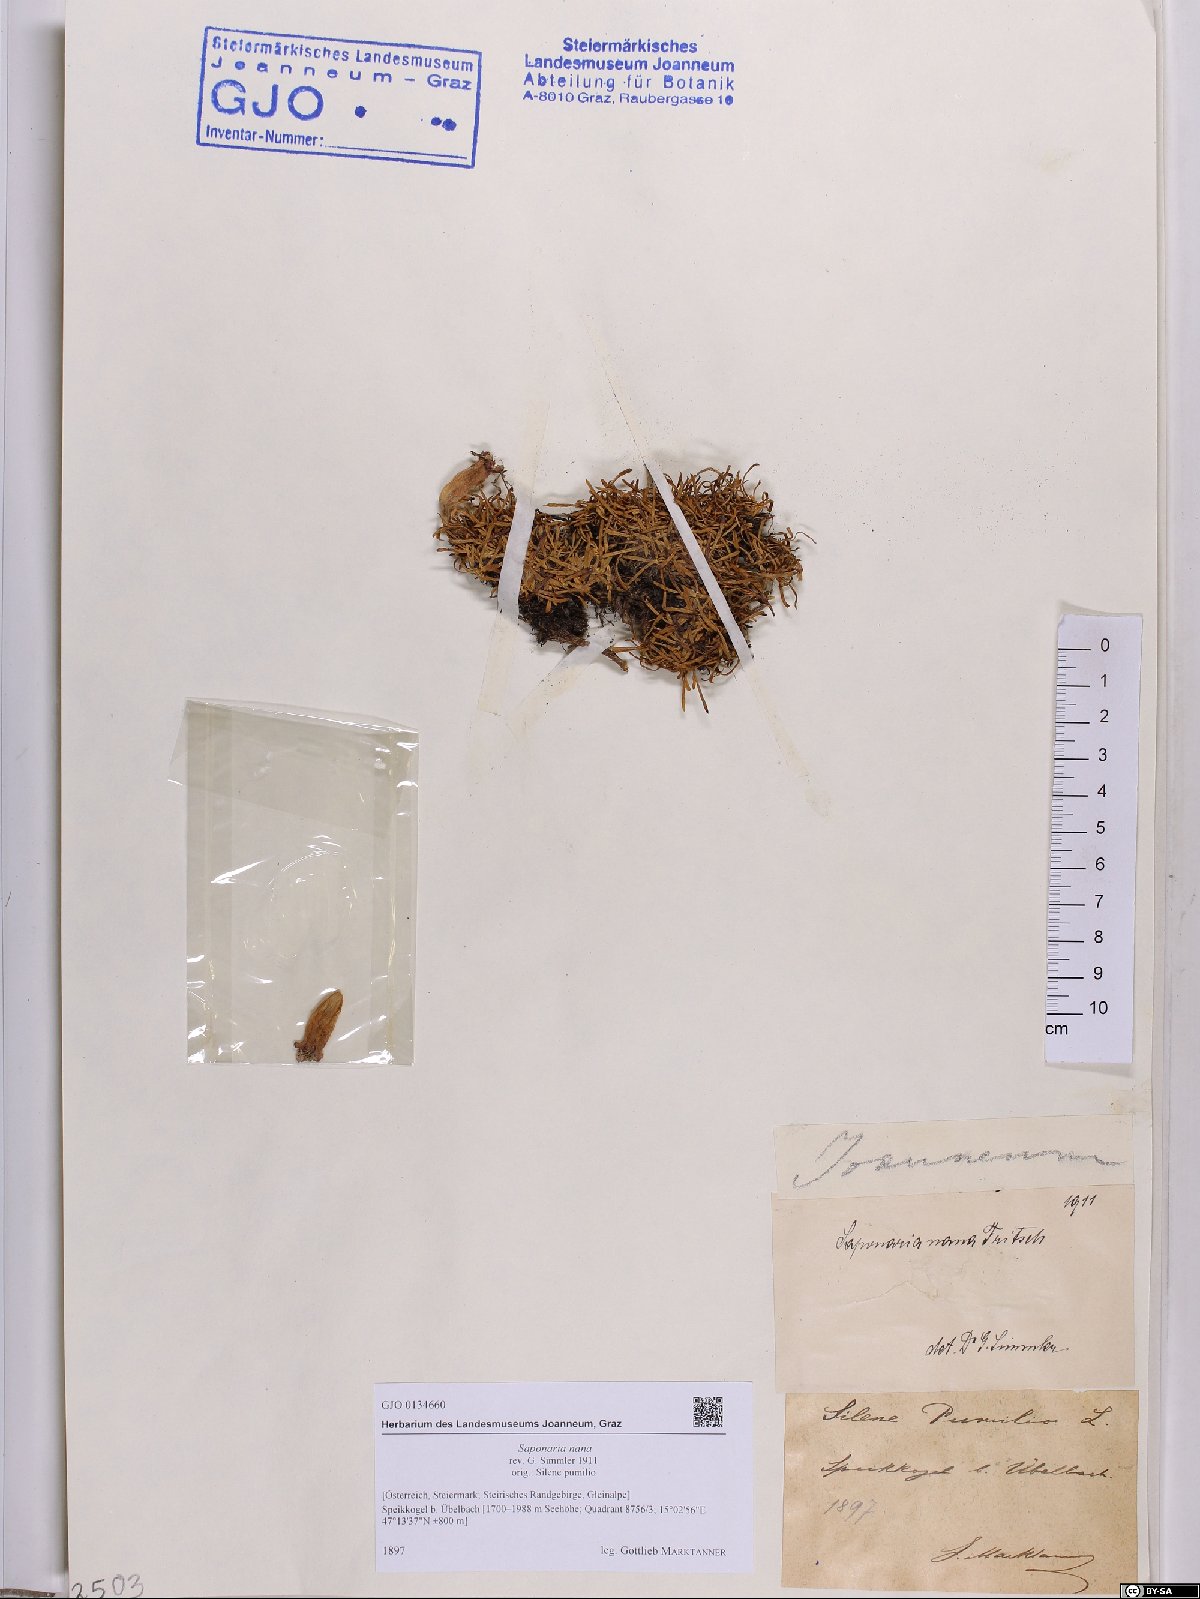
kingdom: Plantae
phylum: Tracheophyta
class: Magnoliopsida
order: Caryophyllales
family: Caryophyllaceae
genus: Saponaria
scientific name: Saponaria pumila
